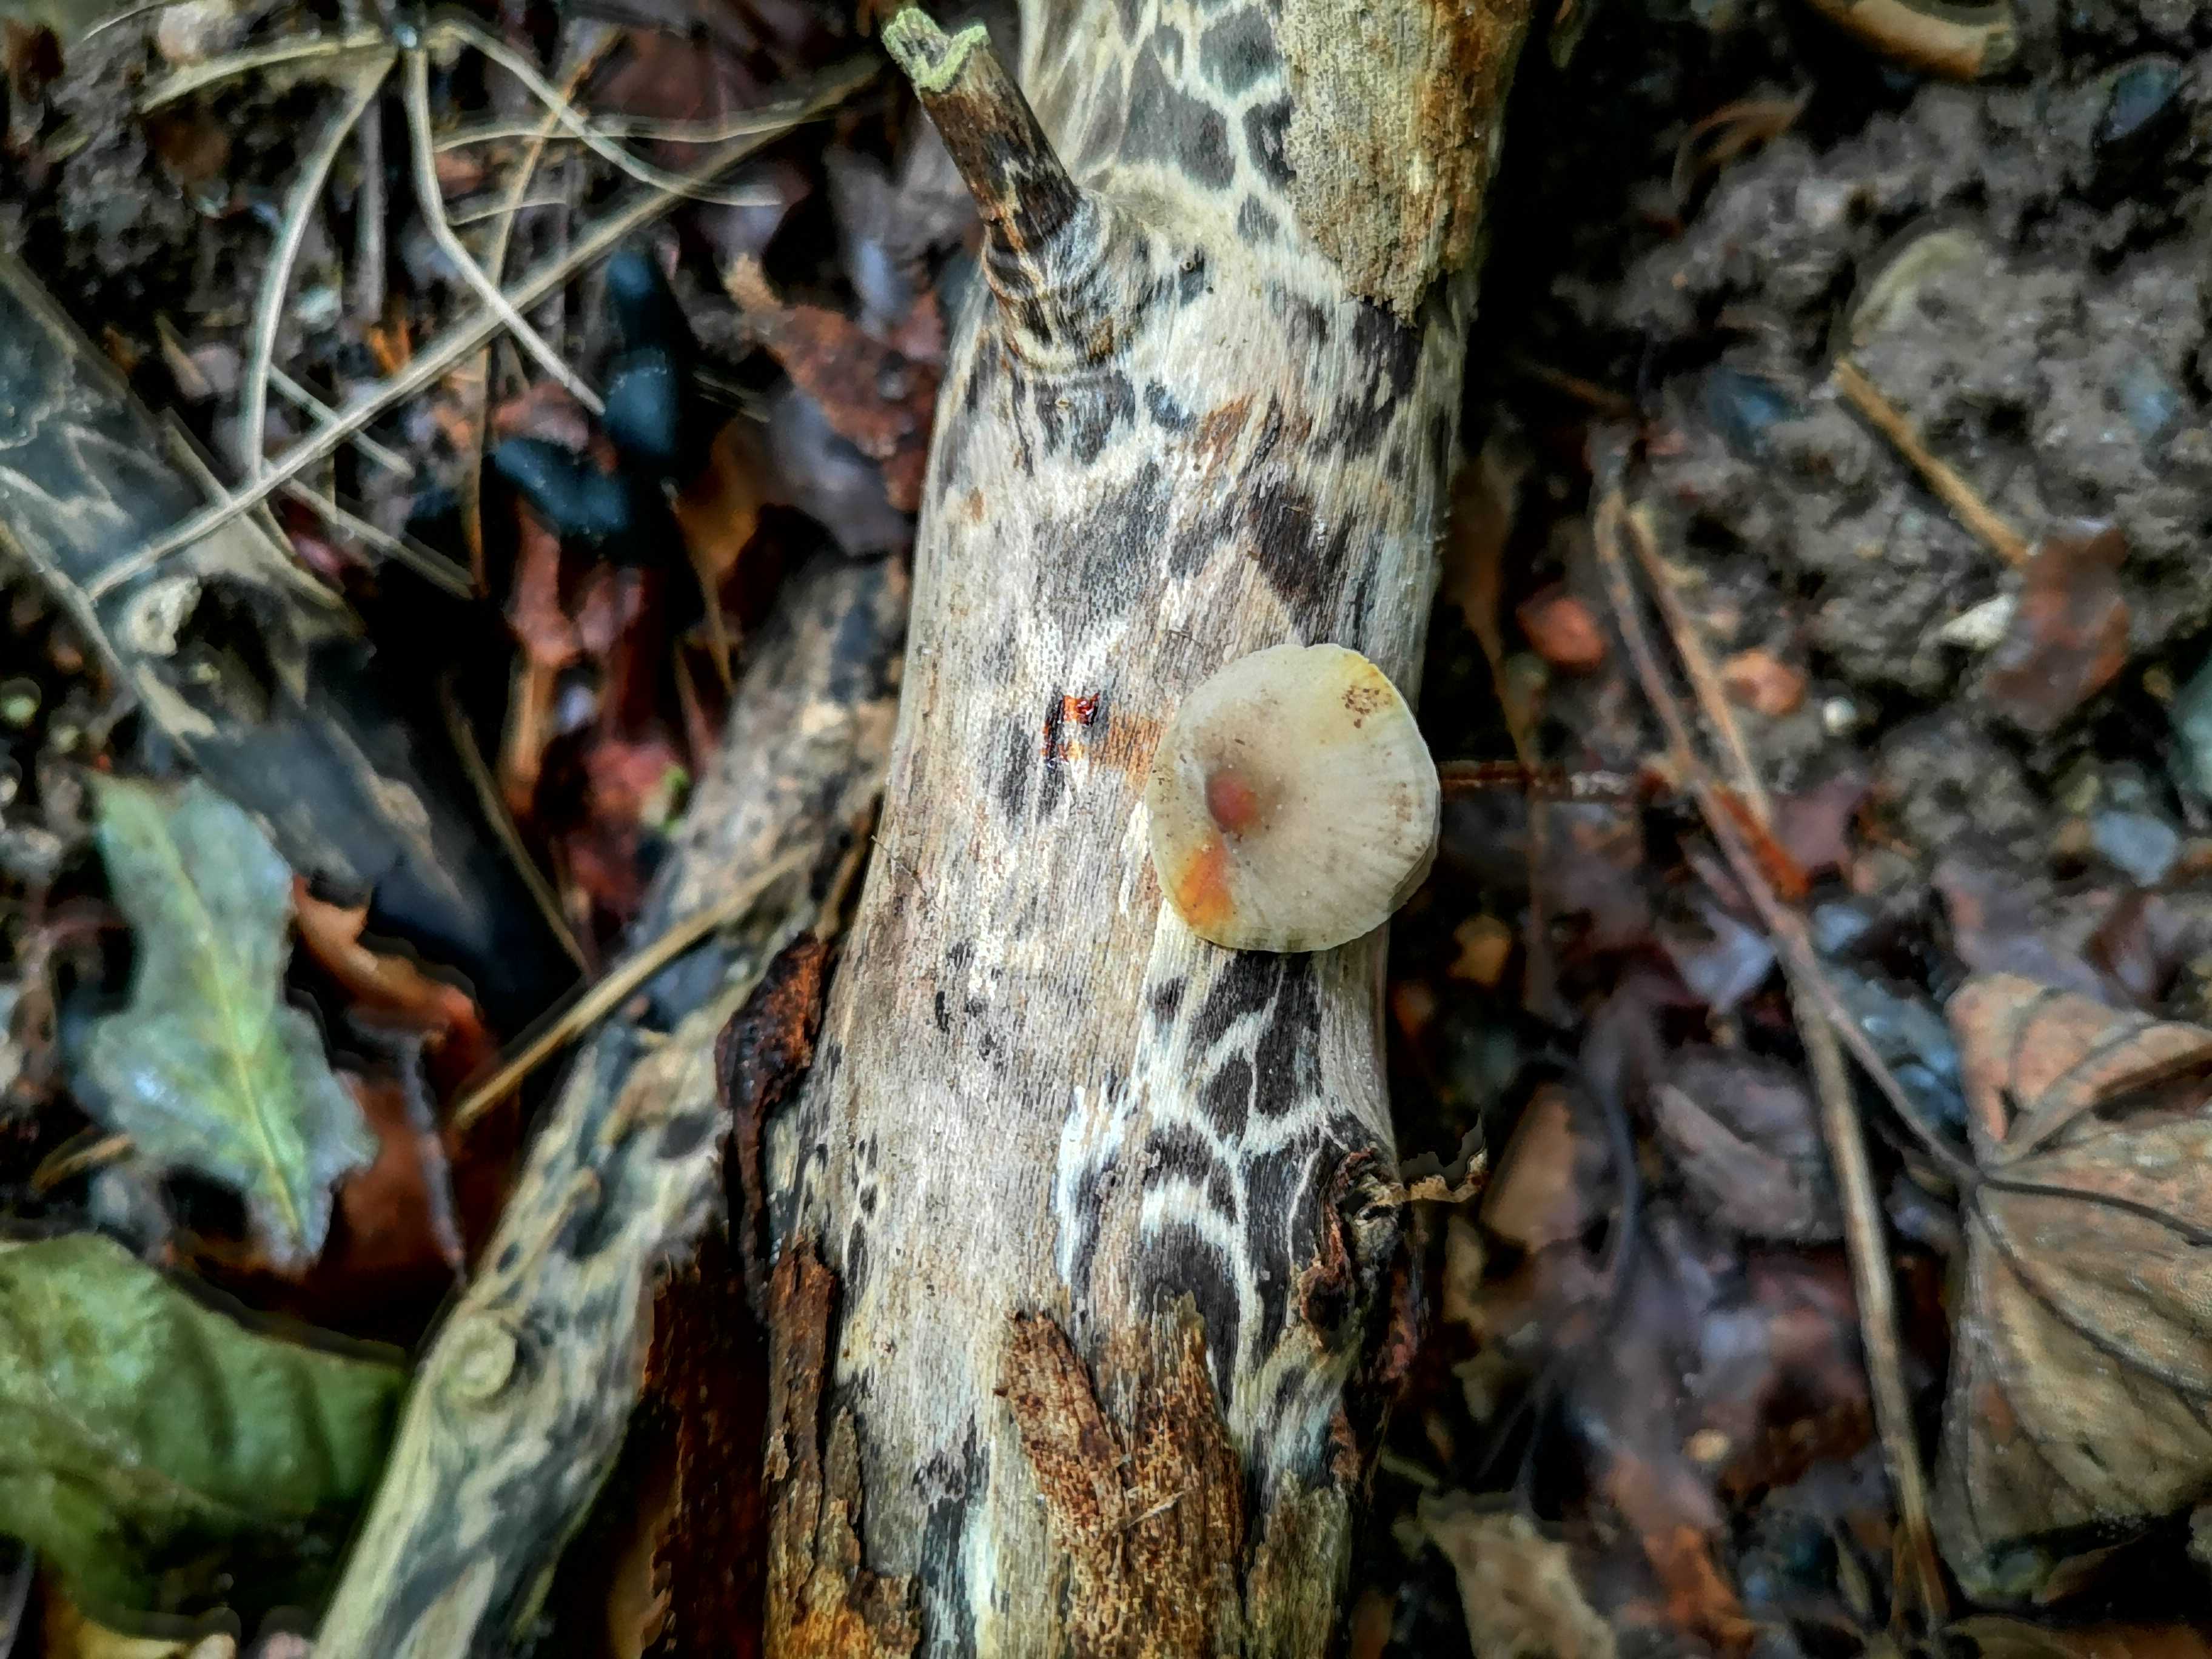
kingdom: Fungi
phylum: Basidiomycota
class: Agaricomycetes
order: Agaricales
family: Mycenaceae
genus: Mycena
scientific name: Mycena crocata
